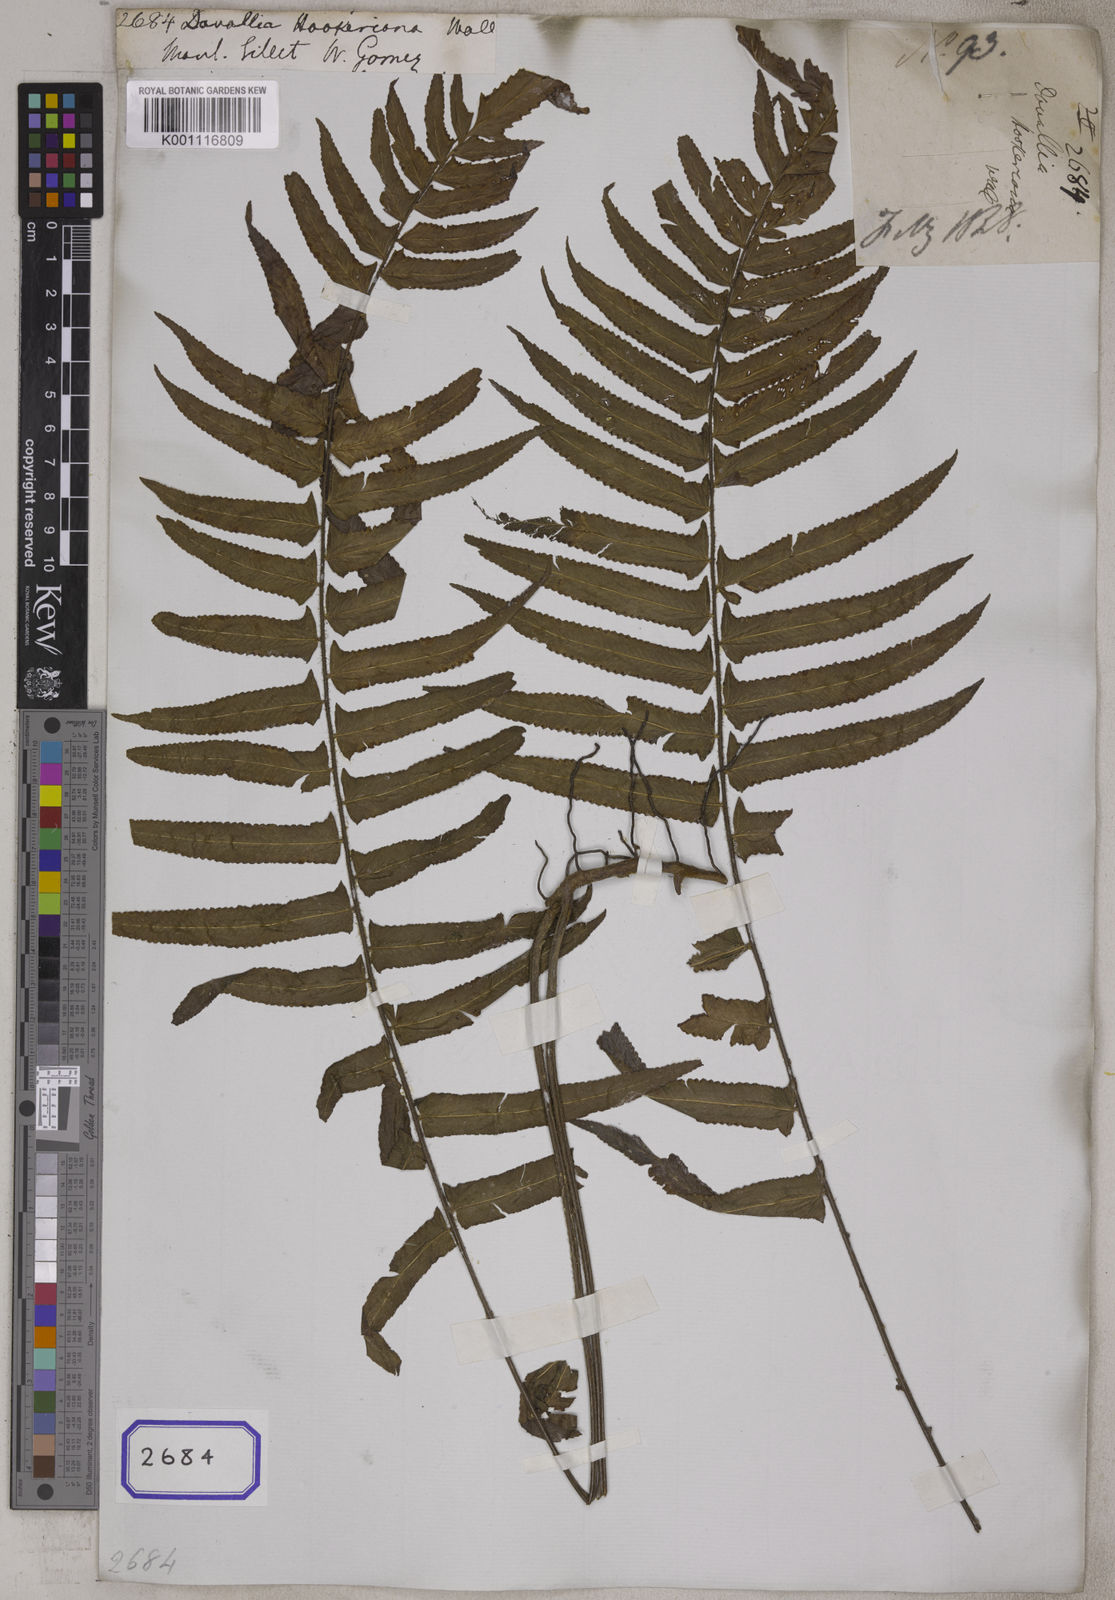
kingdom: Plantae
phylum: Tracheophyta
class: Polypodiopsida
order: Polypodiales
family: Dennstaedtiaceae
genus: Microlepia
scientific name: Microlepia hookeriana
